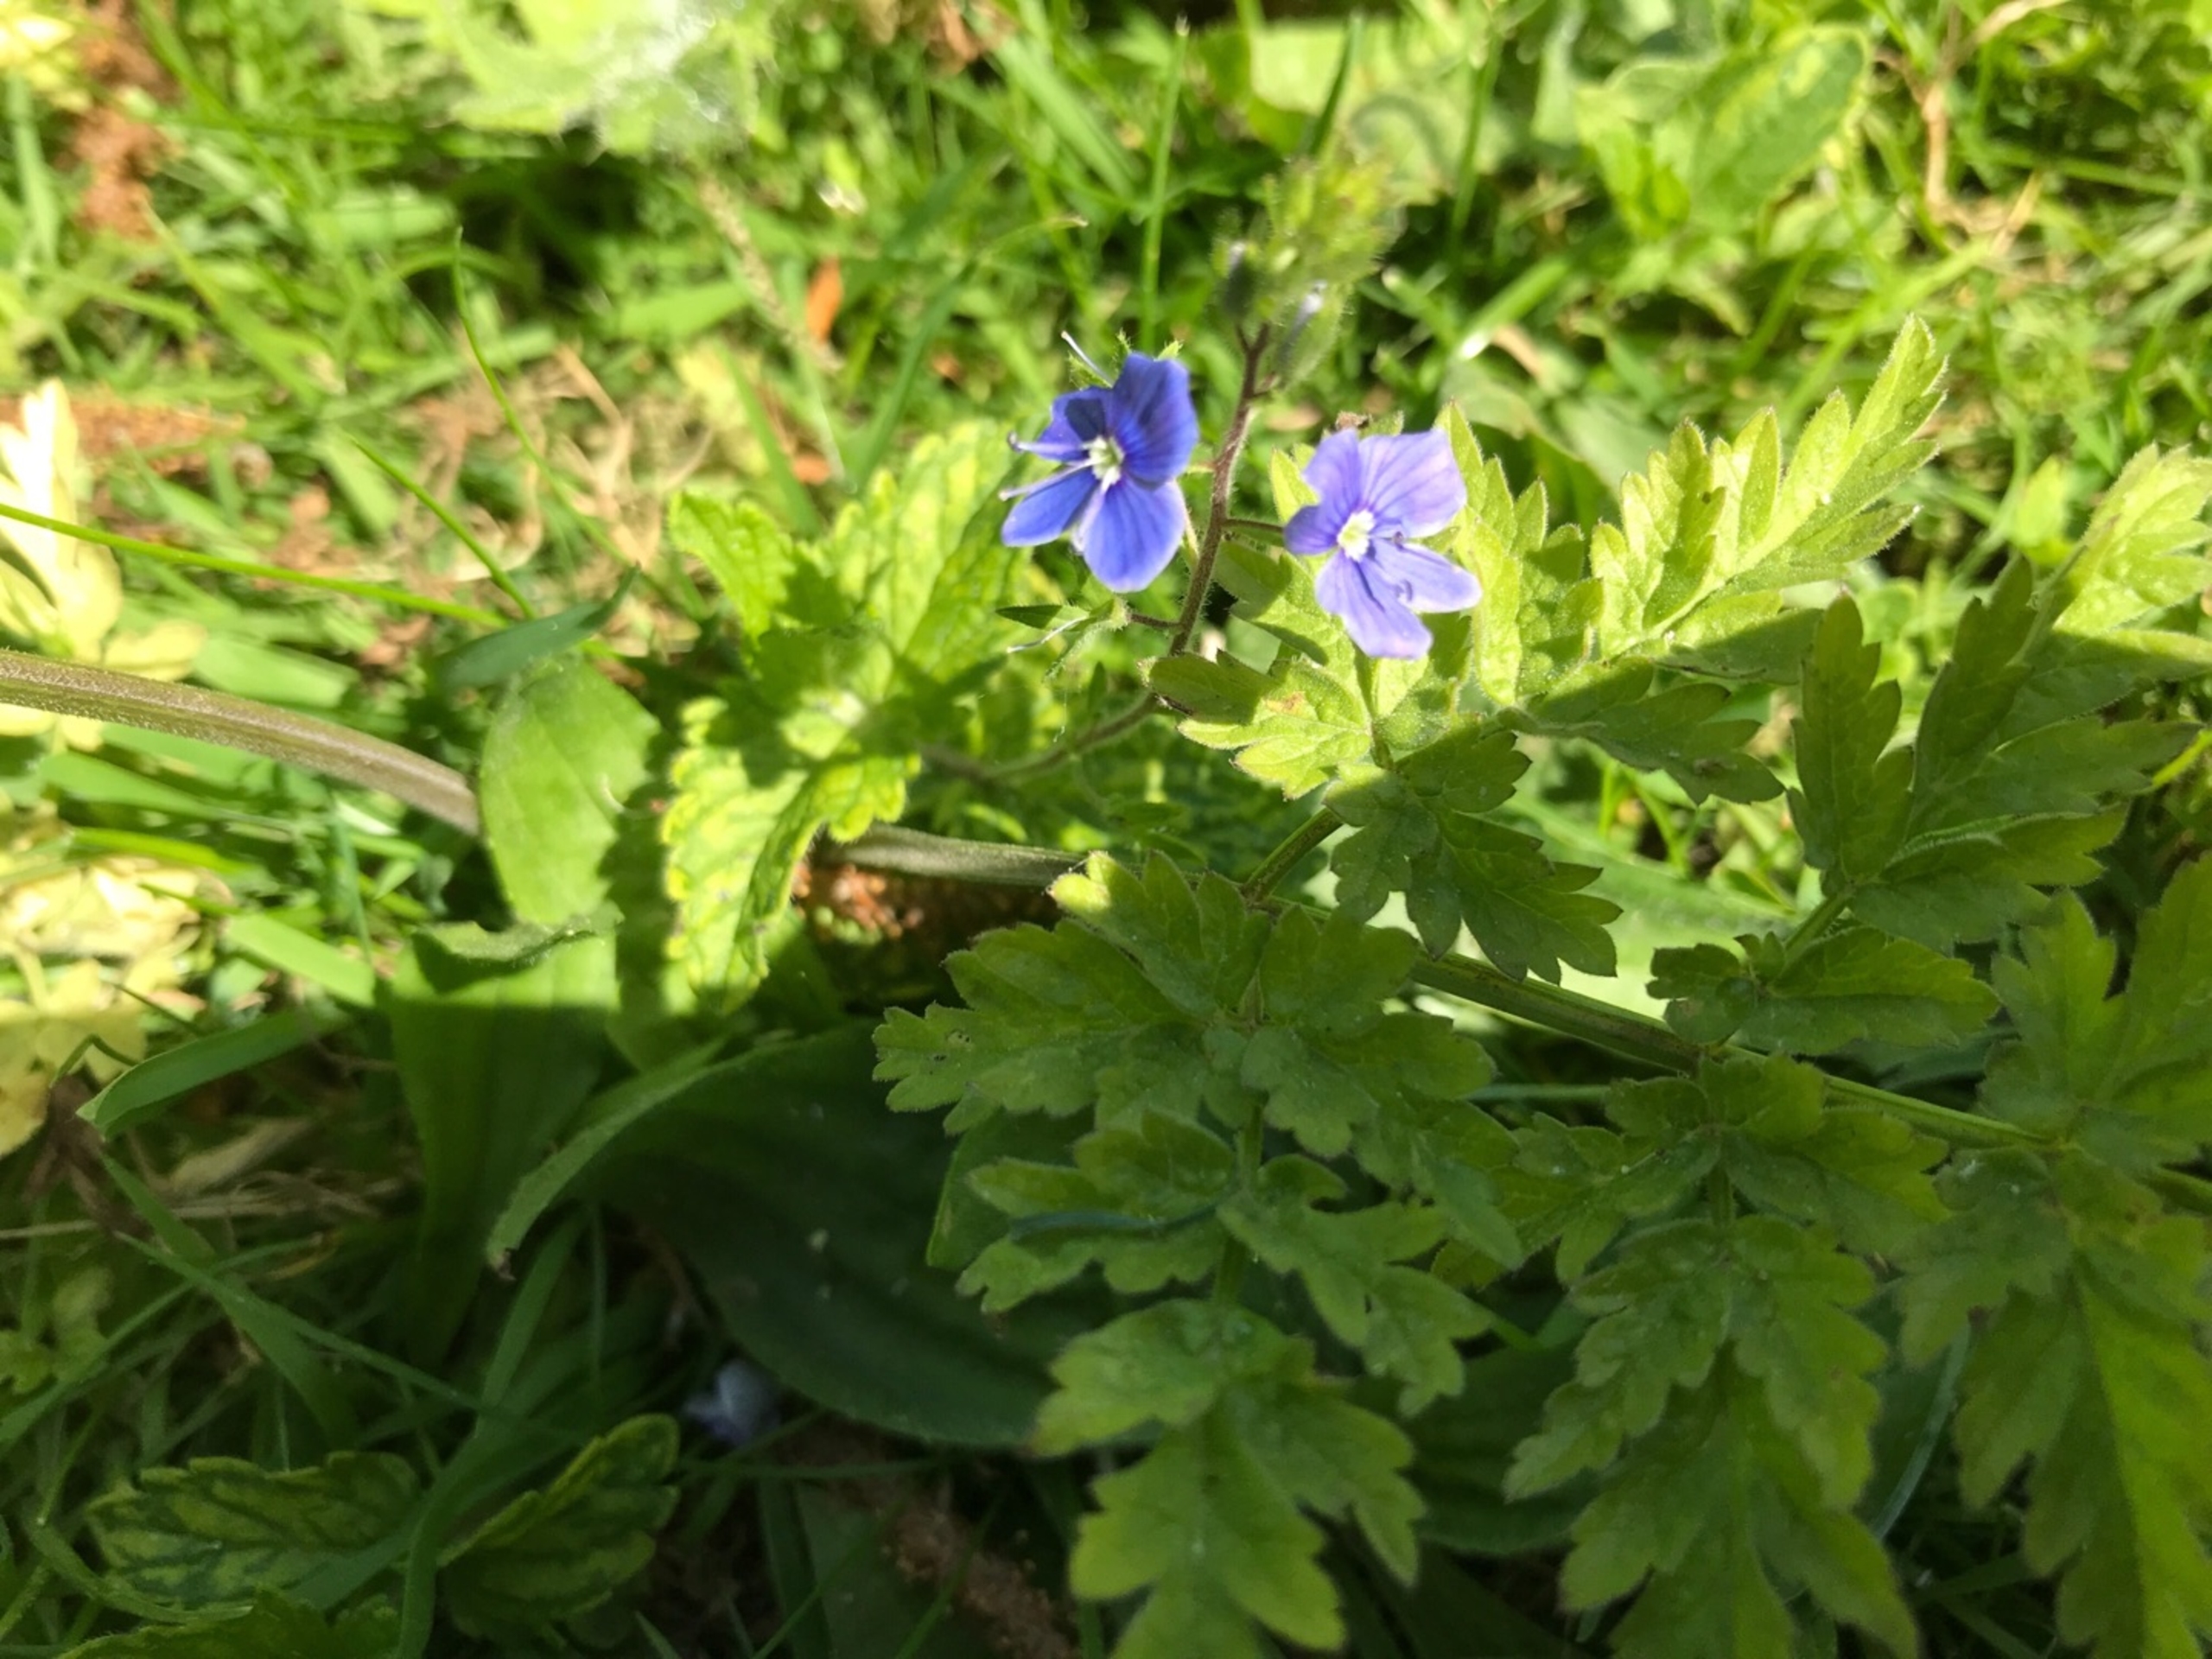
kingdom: Plantae
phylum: Tracheophyta
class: Magnoliopsida
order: Lamiales
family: Plantaginaceae
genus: Veronica
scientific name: Veronica chamaedrys
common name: Tveskægget ærenpris
